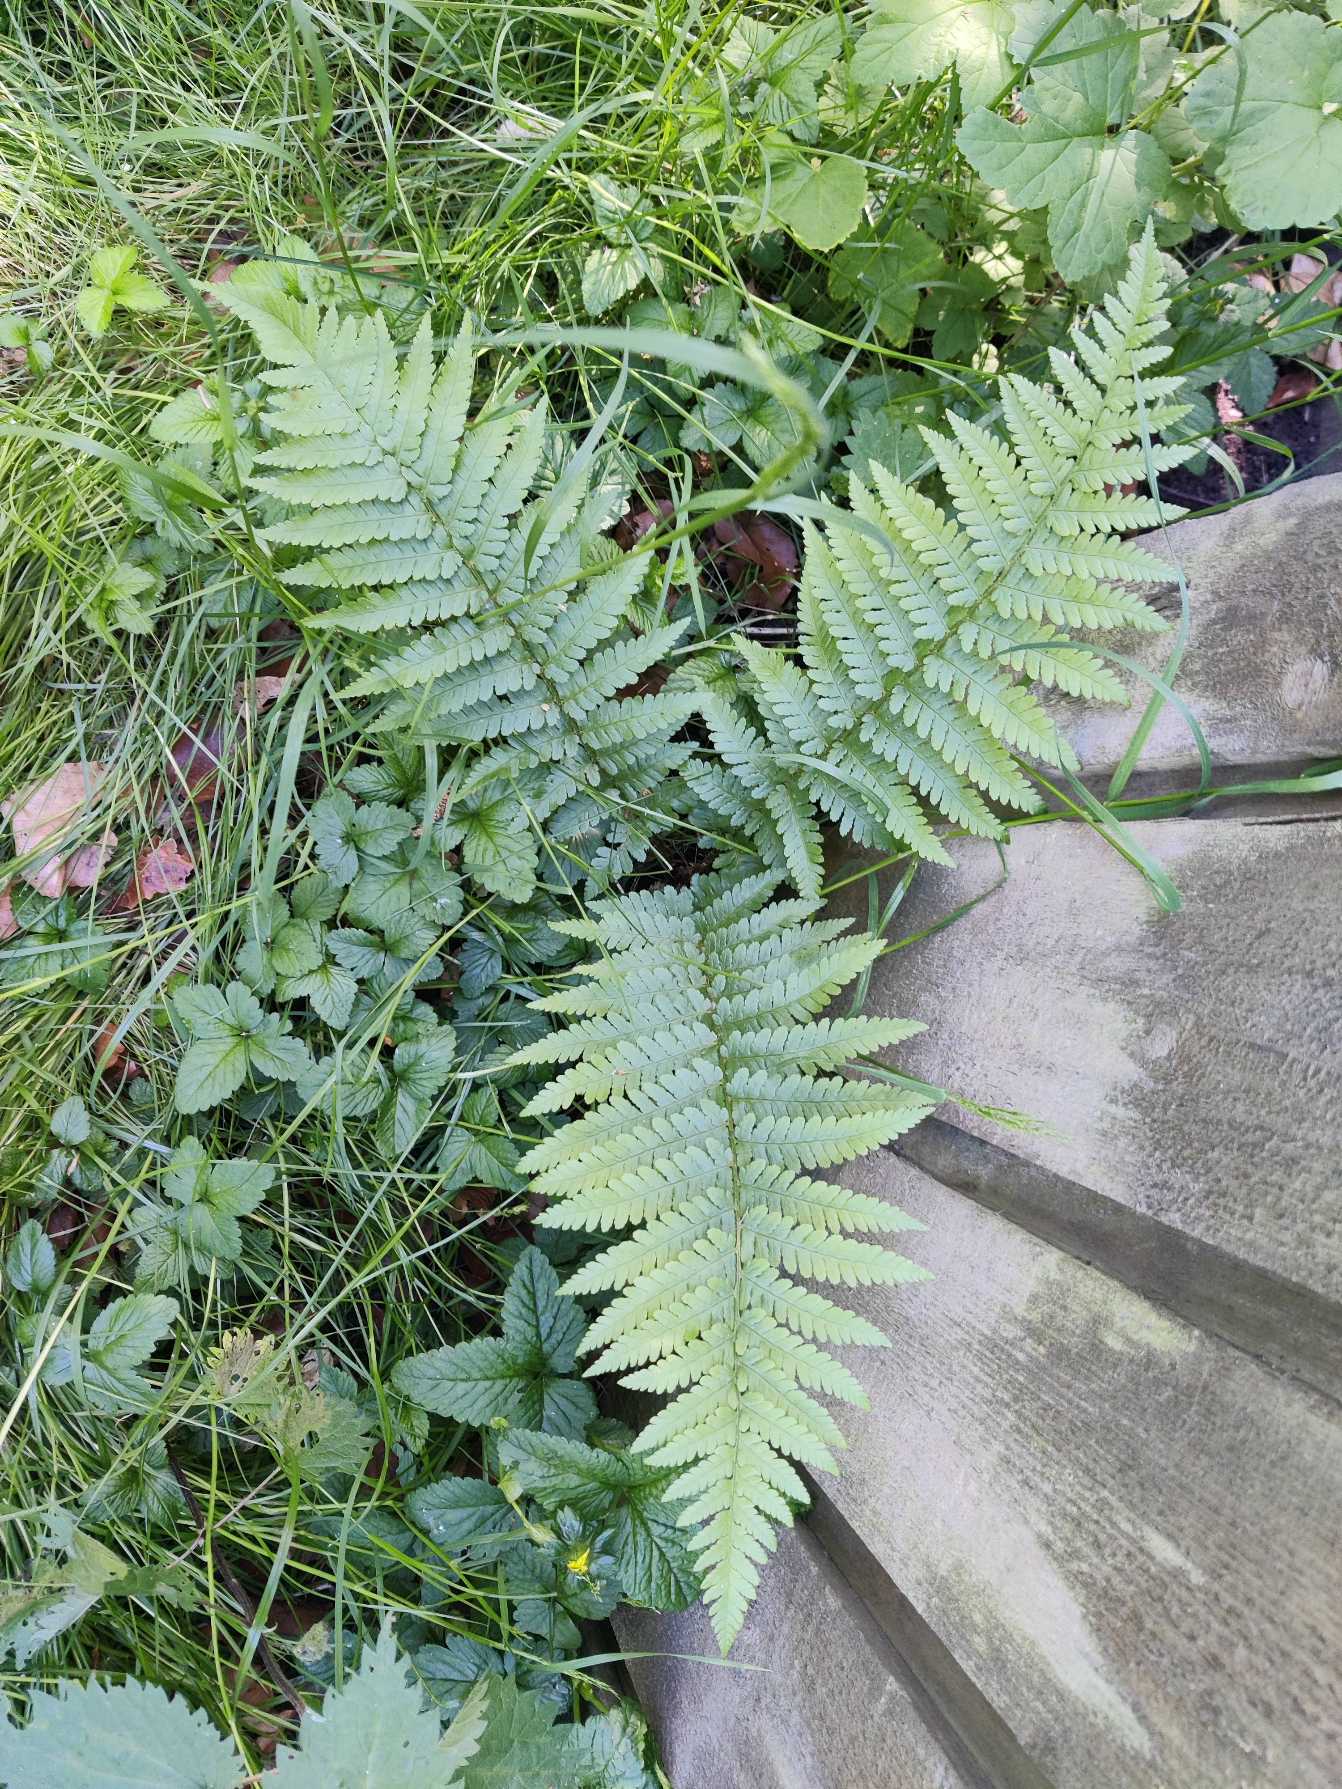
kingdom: Plantae
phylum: Tracheophyta
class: Polypodiopsida
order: Polypodiales
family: Dryopteridaceae
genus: Dryopteris
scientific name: Dryopteris filix-mas
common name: Almindelig mangeløv
